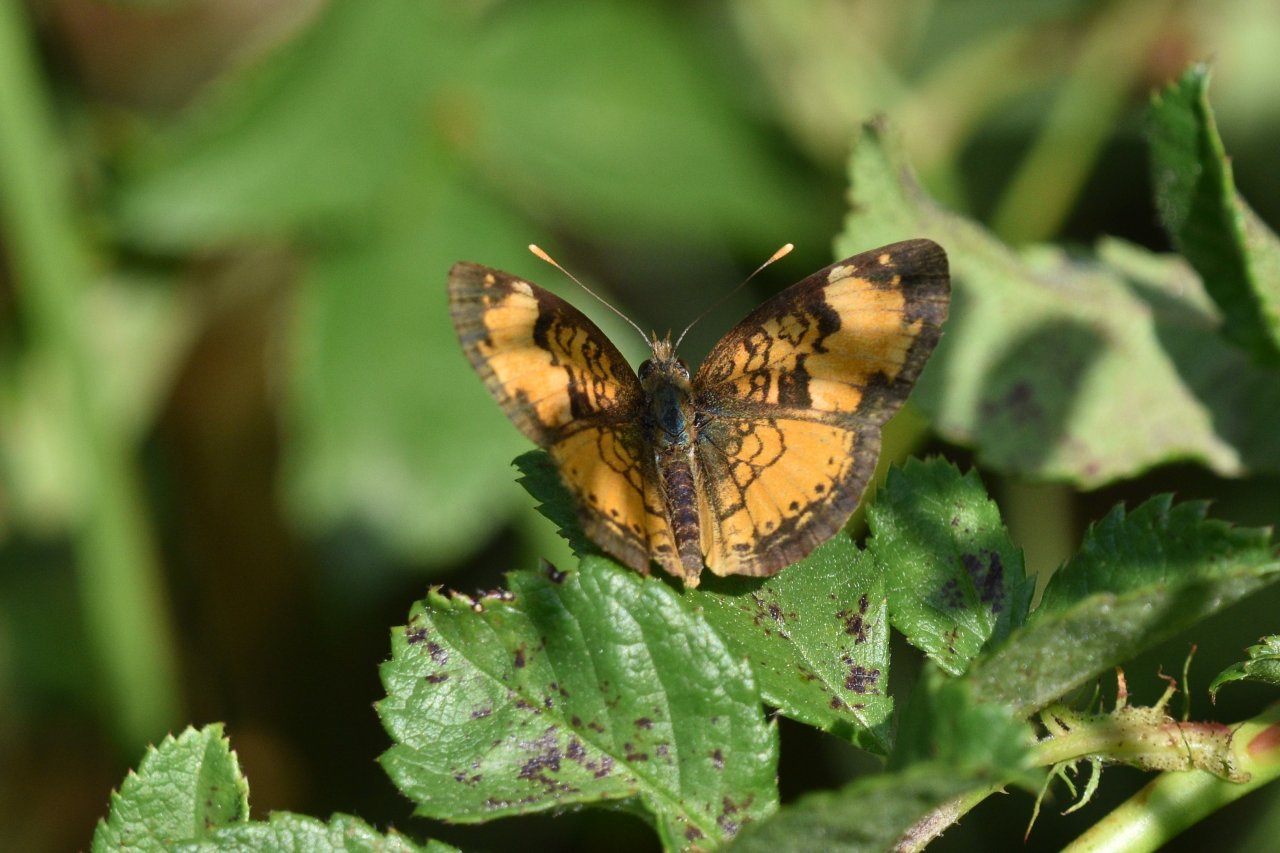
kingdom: Animalia
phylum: Arthropoda
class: Insecta
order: Lepidoptera
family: Nymphalidae
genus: Phyciodes
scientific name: Phyciodes tharos
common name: Northern Crescent
